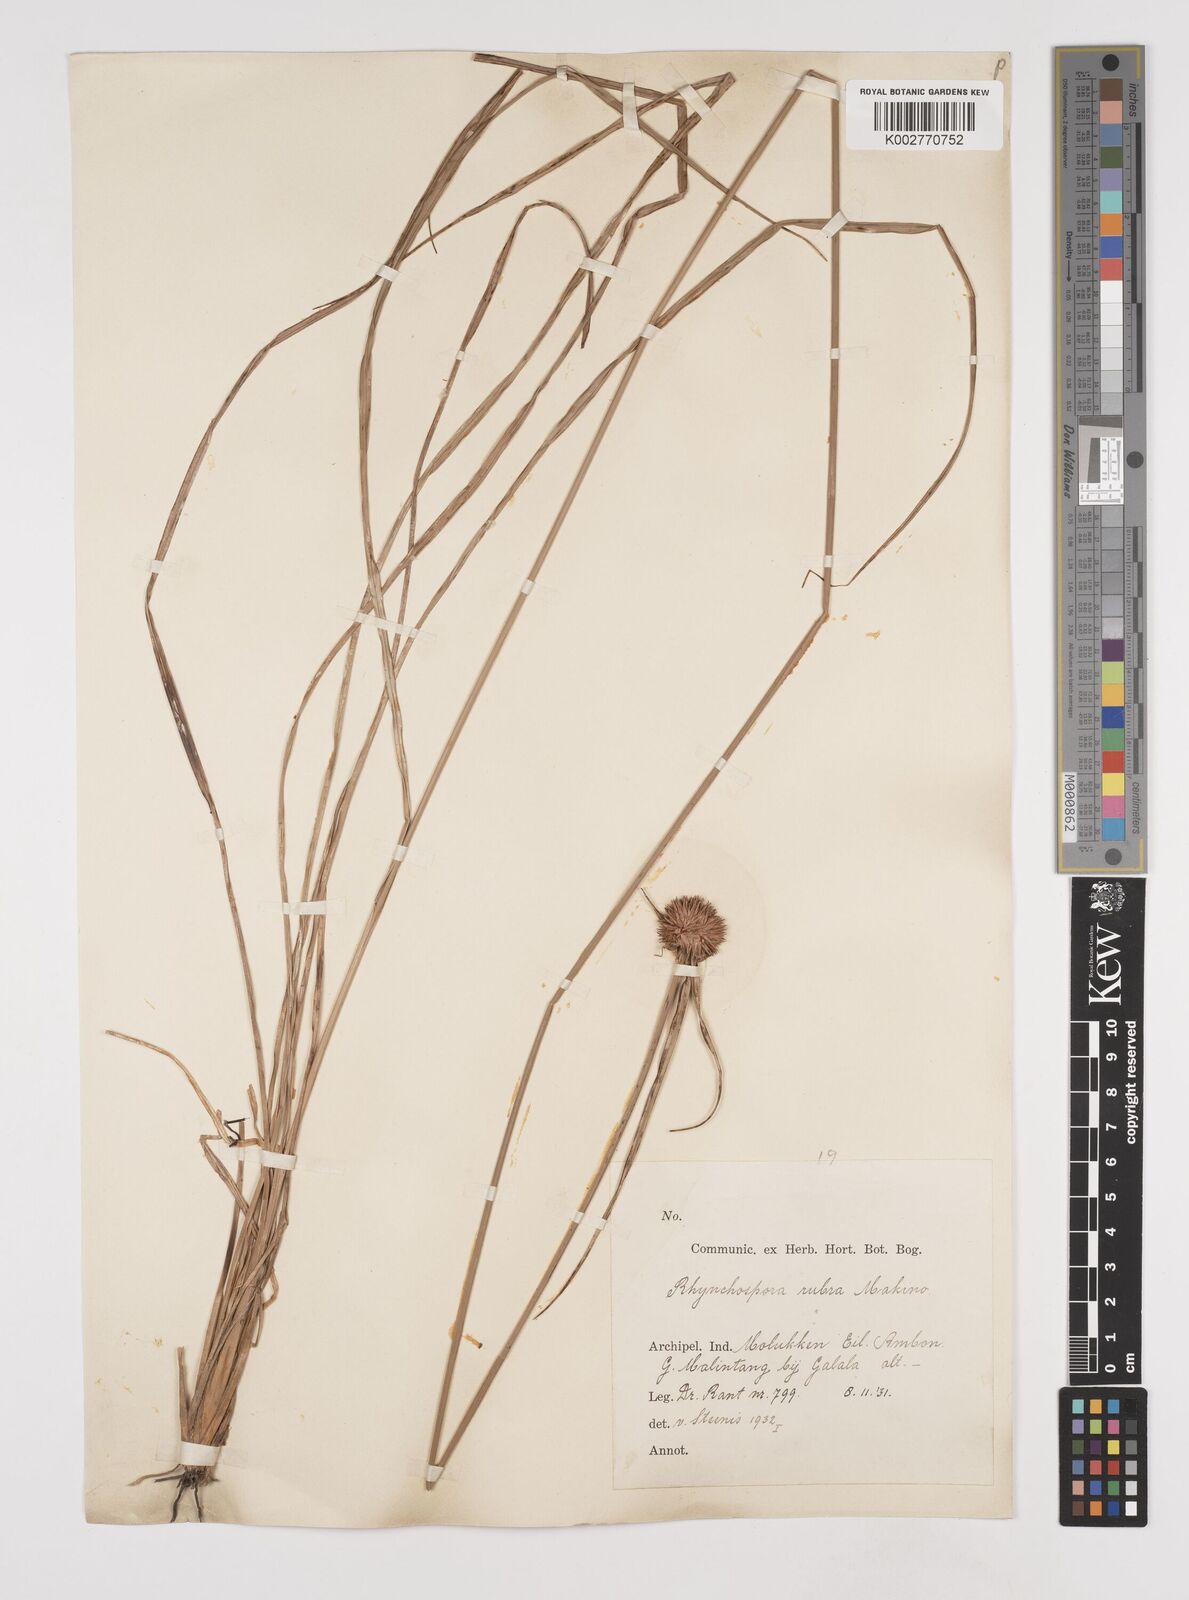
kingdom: Plantae
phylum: Tracheophyta
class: Liliopsida
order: Poales
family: Cyperaceae
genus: Rhynchospora
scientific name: Rhynchospora rubra
